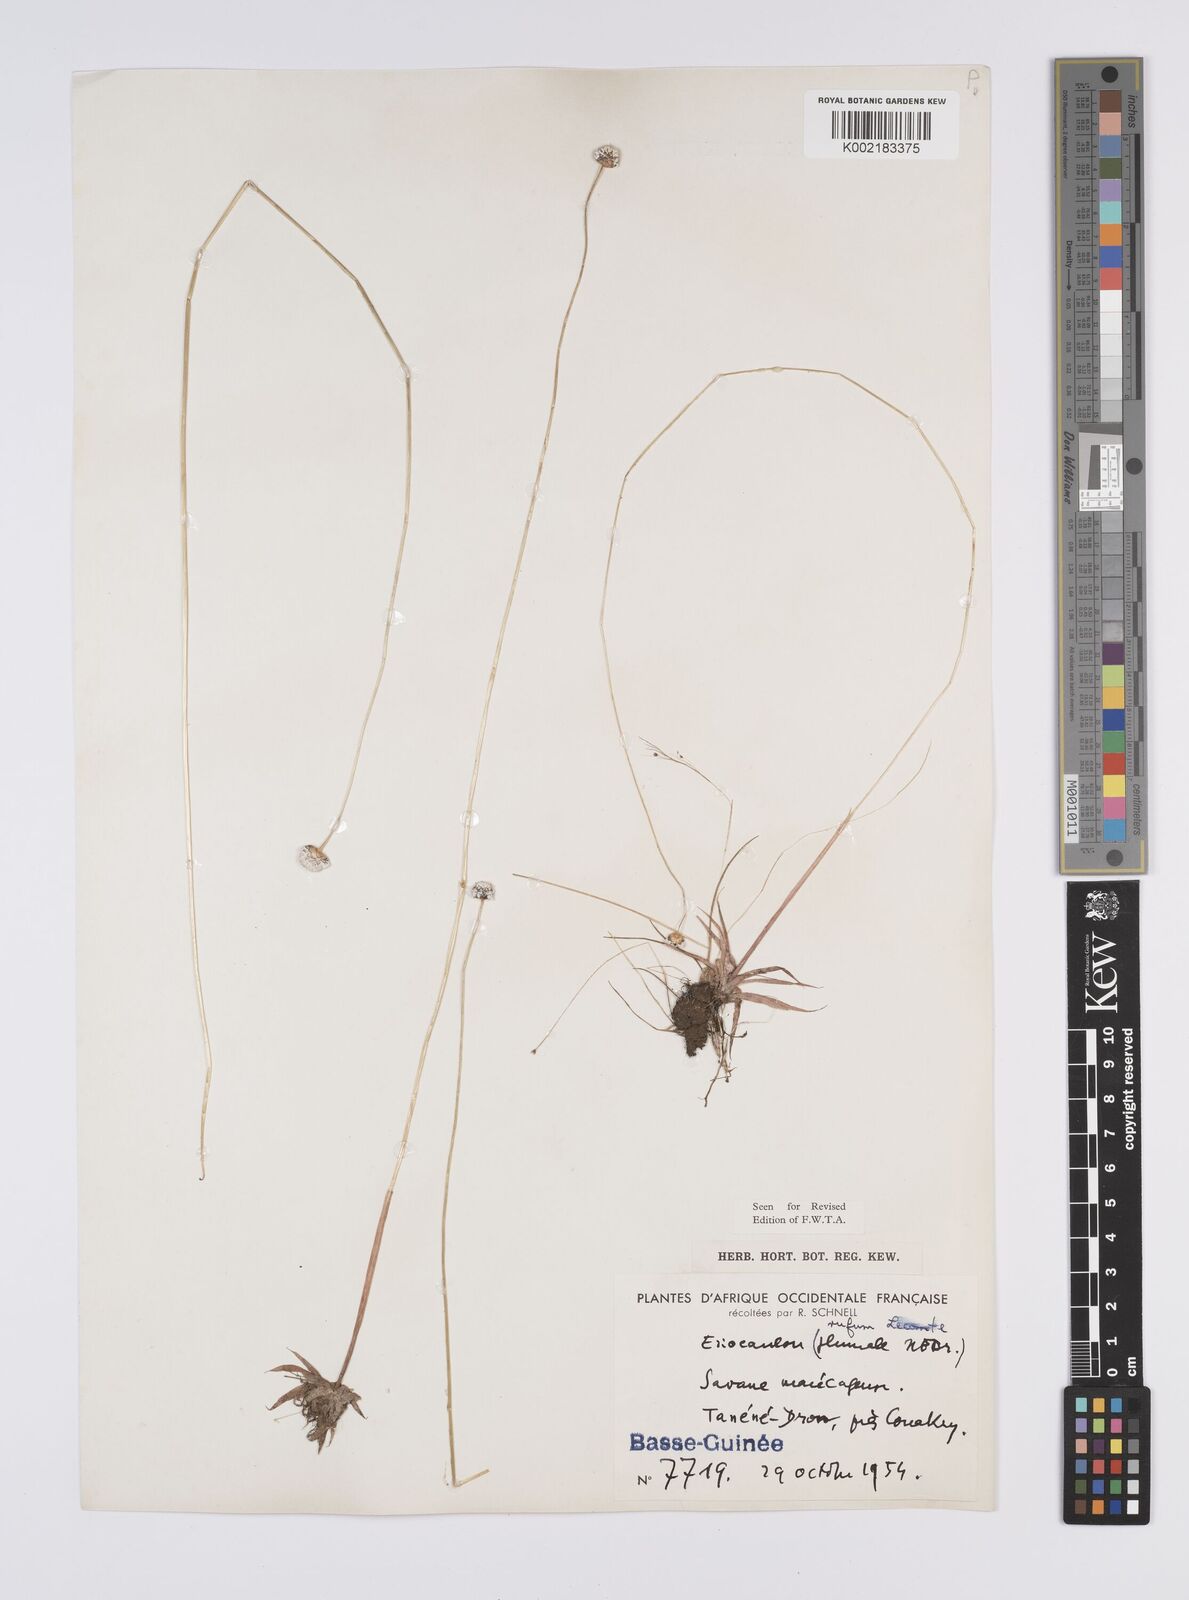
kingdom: Plantae
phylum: Tracheophyta
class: Liliopsida
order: Poales
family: Eriocaulaceae
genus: Eriocaulon
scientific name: Eriocaulon rufum
